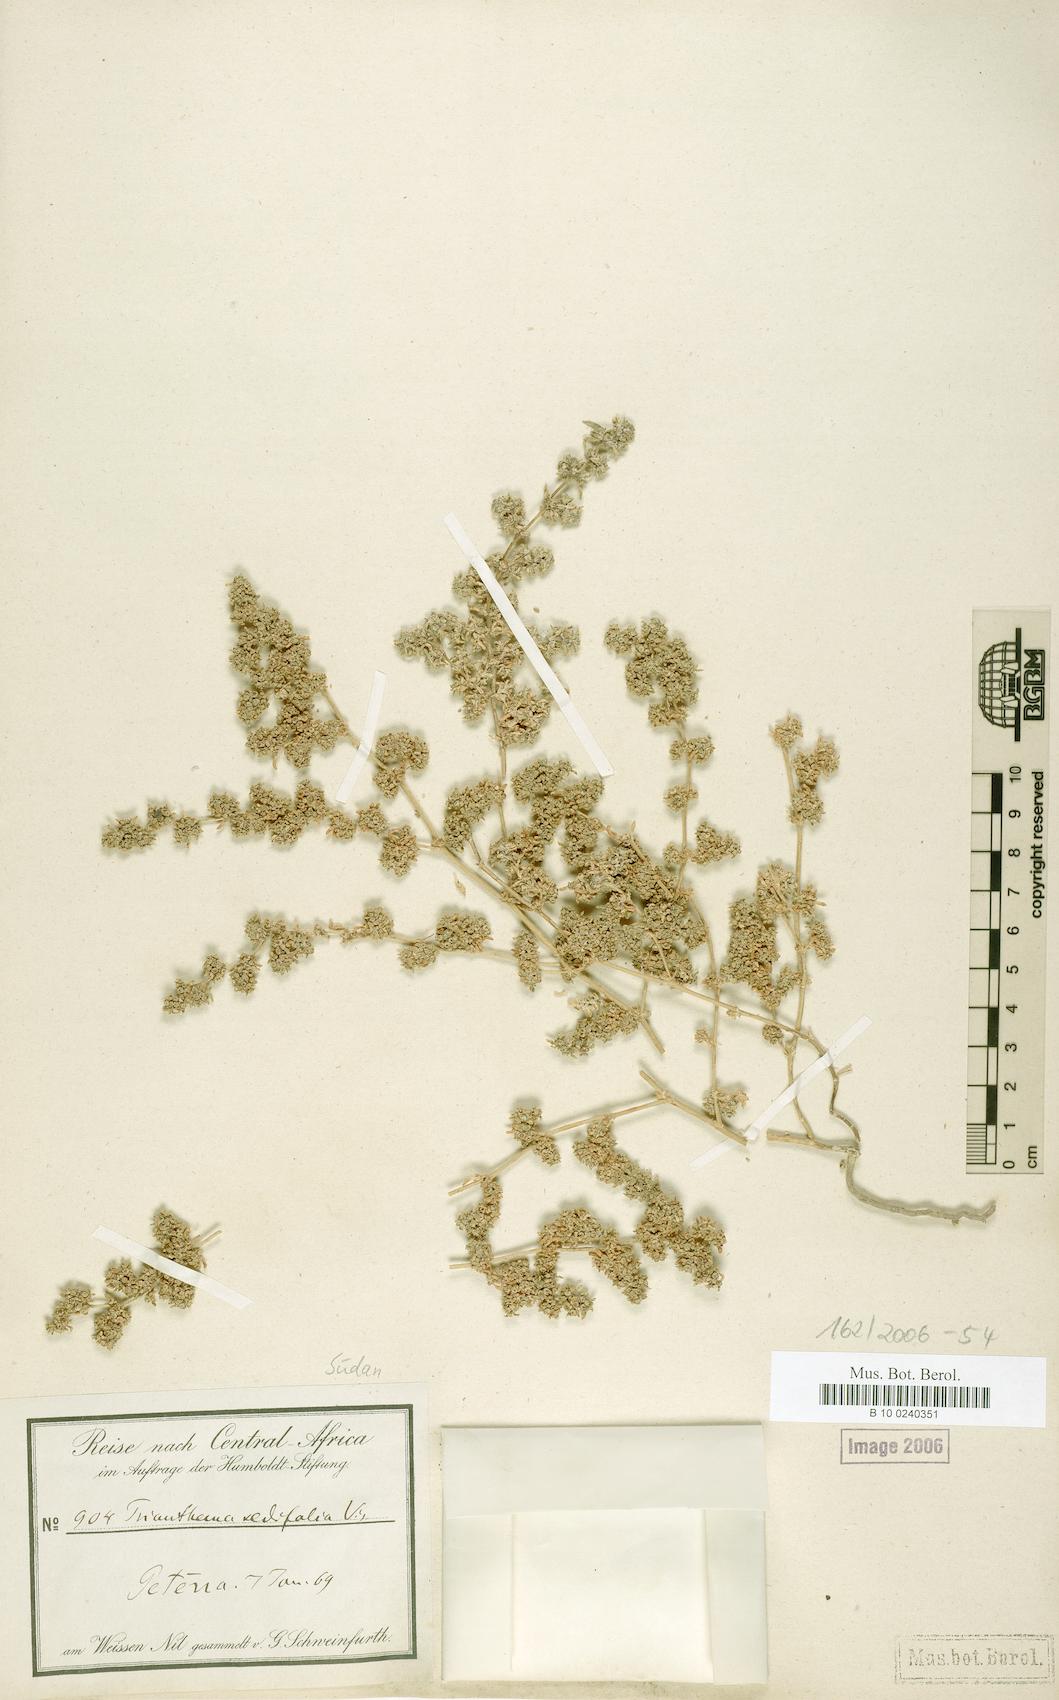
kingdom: Plantae
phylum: Tracheophyta
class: Magnoliopsida
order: Caryophyllales
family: Aizoaceae
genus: Trianthema
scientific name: Trianthema triquetrum
